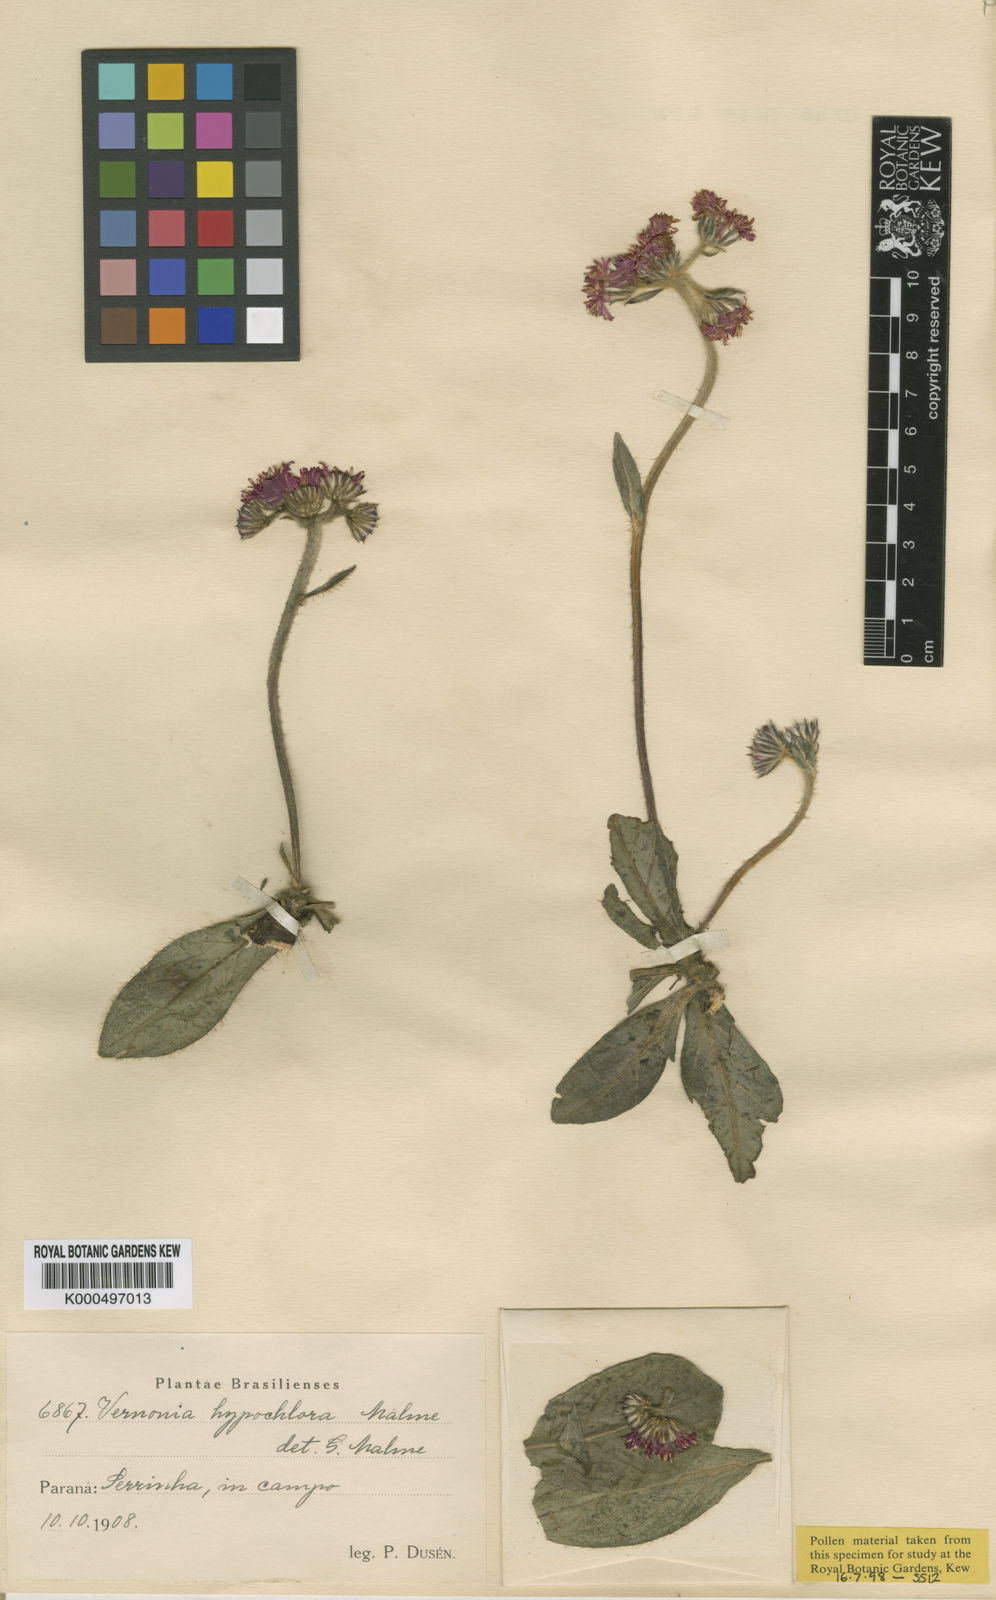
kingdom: Plantae
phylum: Tracheophyta
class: Magnoliopsida
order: Asterales
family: Asteraceae
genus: Chrysolaena
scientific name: Chrysolaena oligophylla
